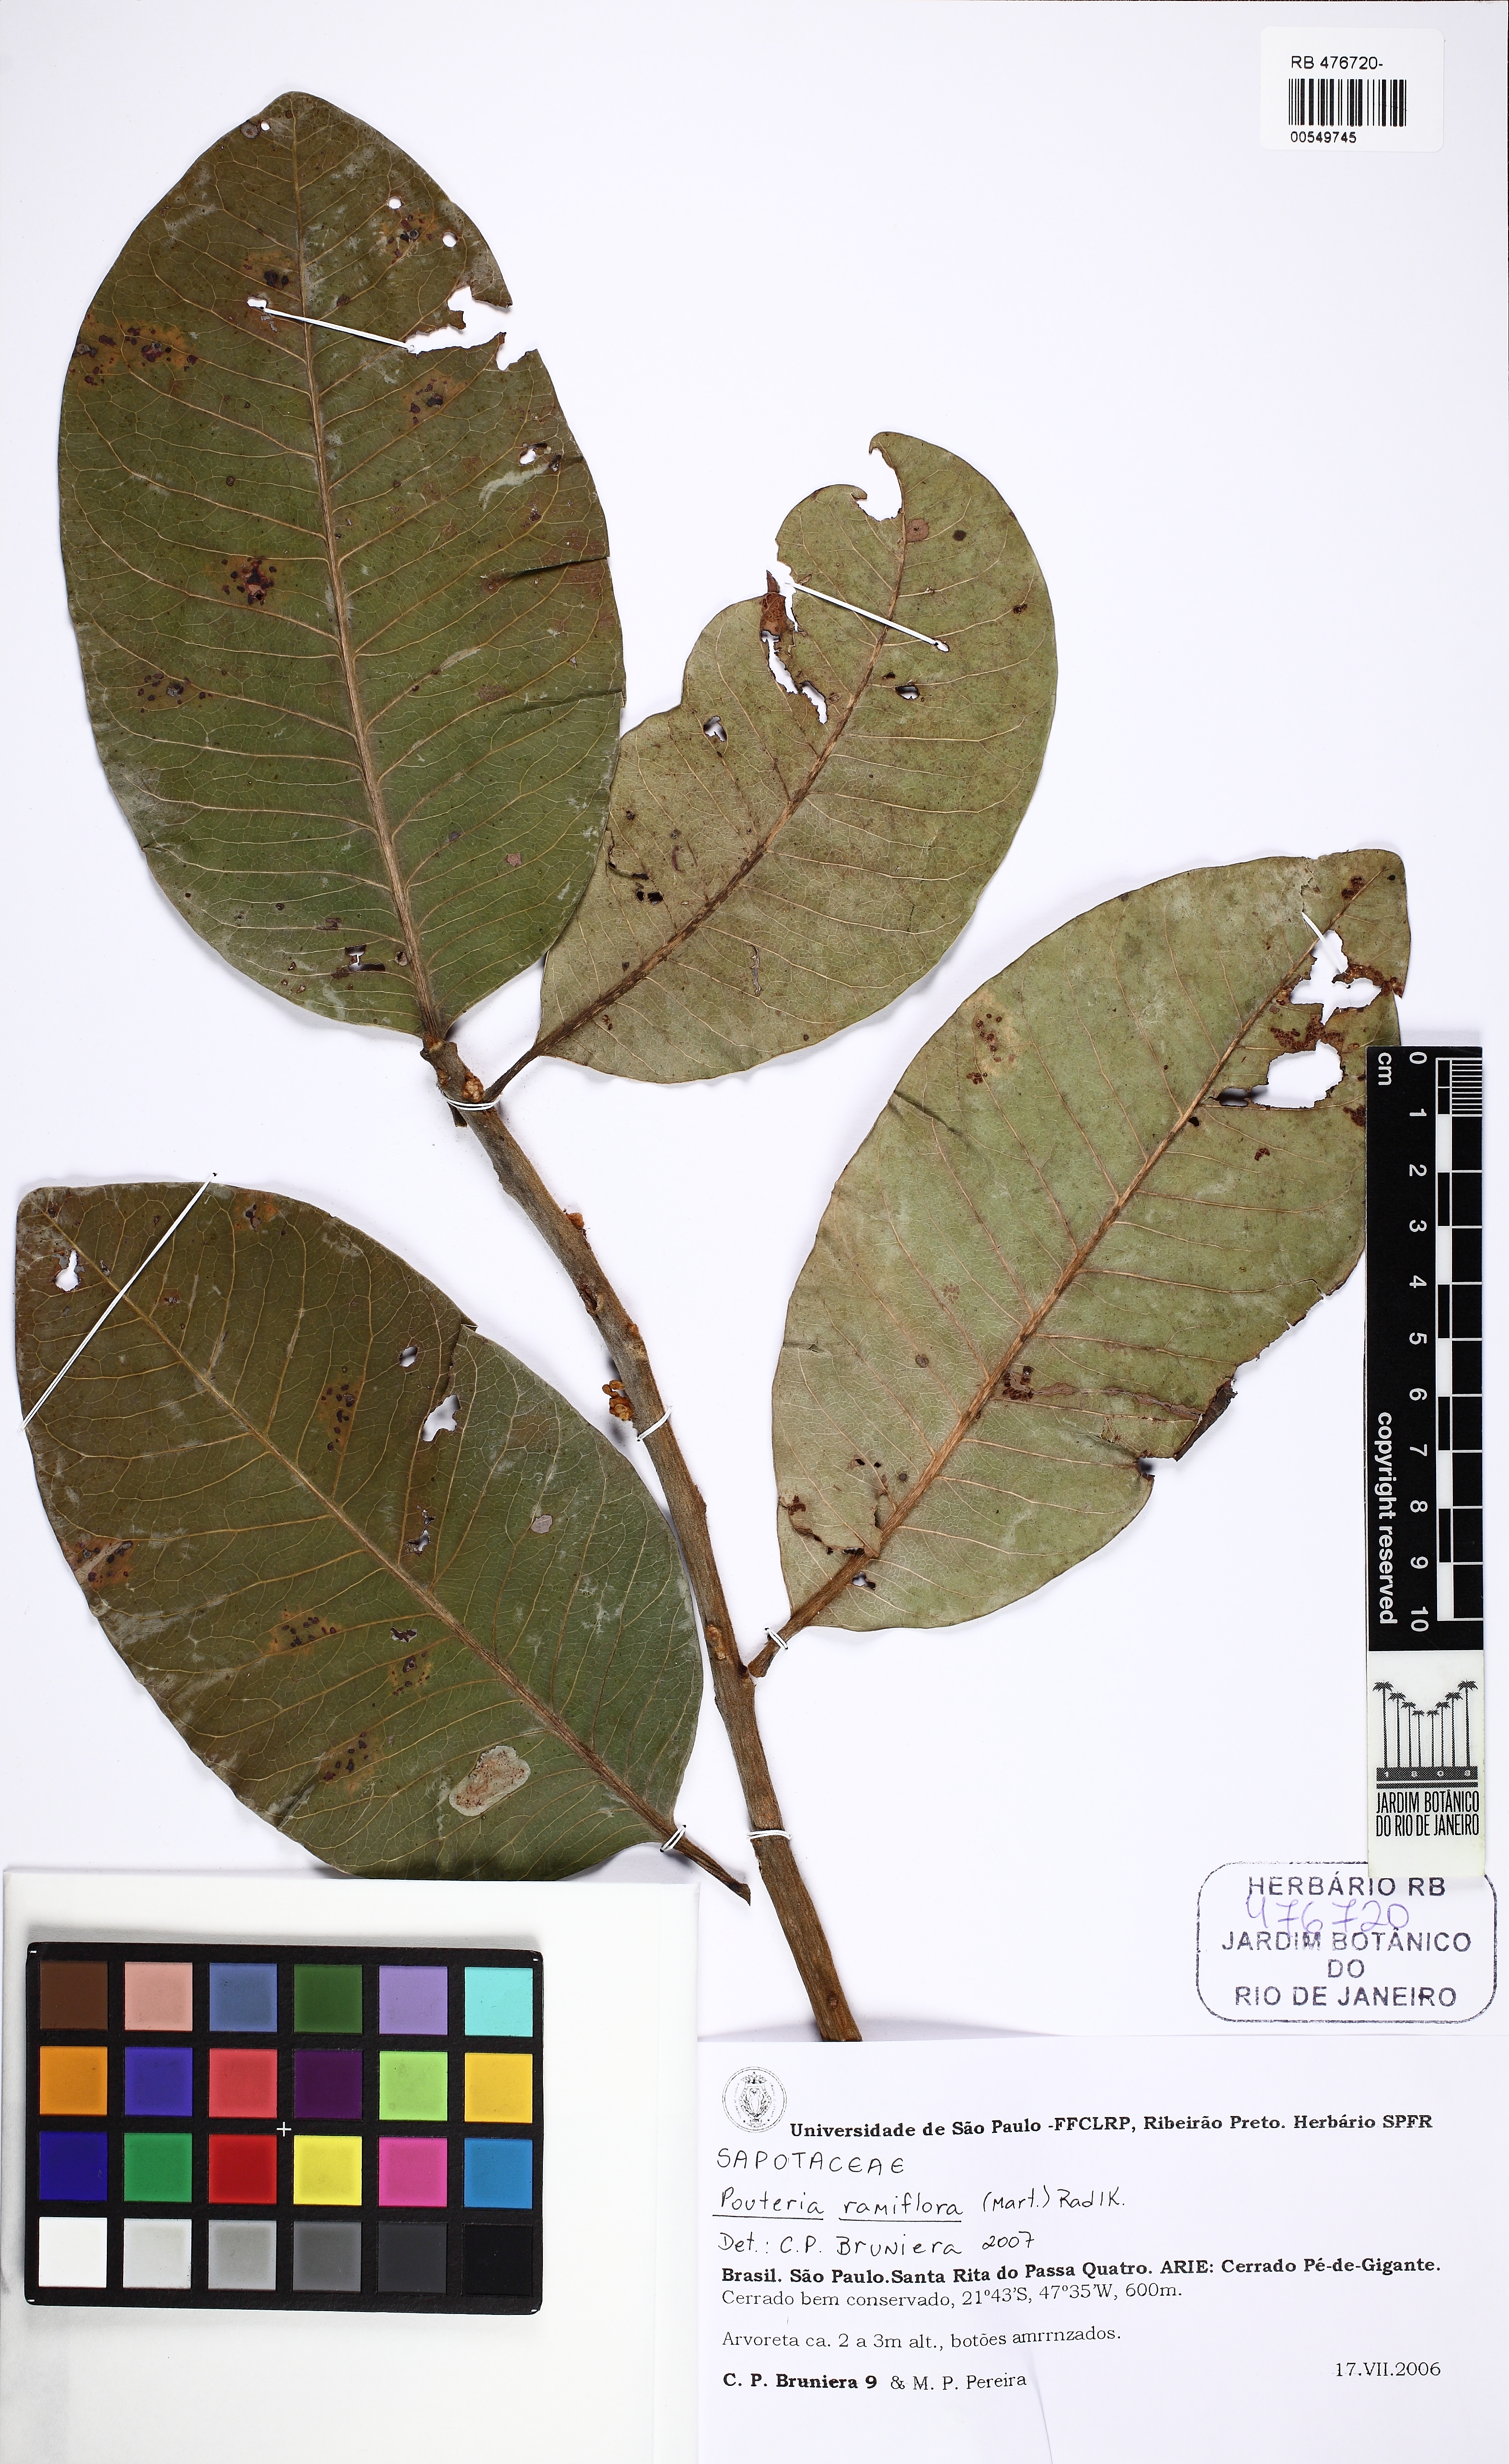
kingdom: Plantae
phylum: Tracheophyta
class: Magnoliopsida
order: Ericales
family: Sapotaceae
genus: Pouteria
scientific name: Pouteria ramiflora
